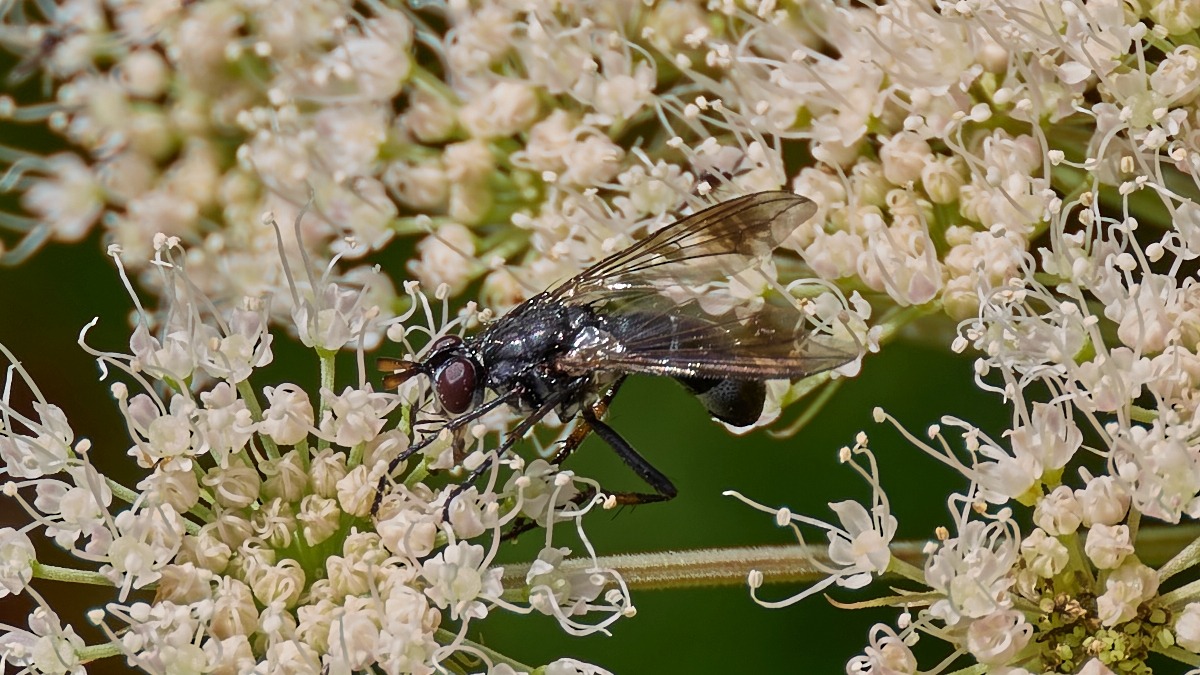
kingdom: Animalia
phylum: Arthropoda
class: Insecta
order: Diptera
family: Tachinidae
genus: Lophosia
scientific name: Lophosia fasciata
